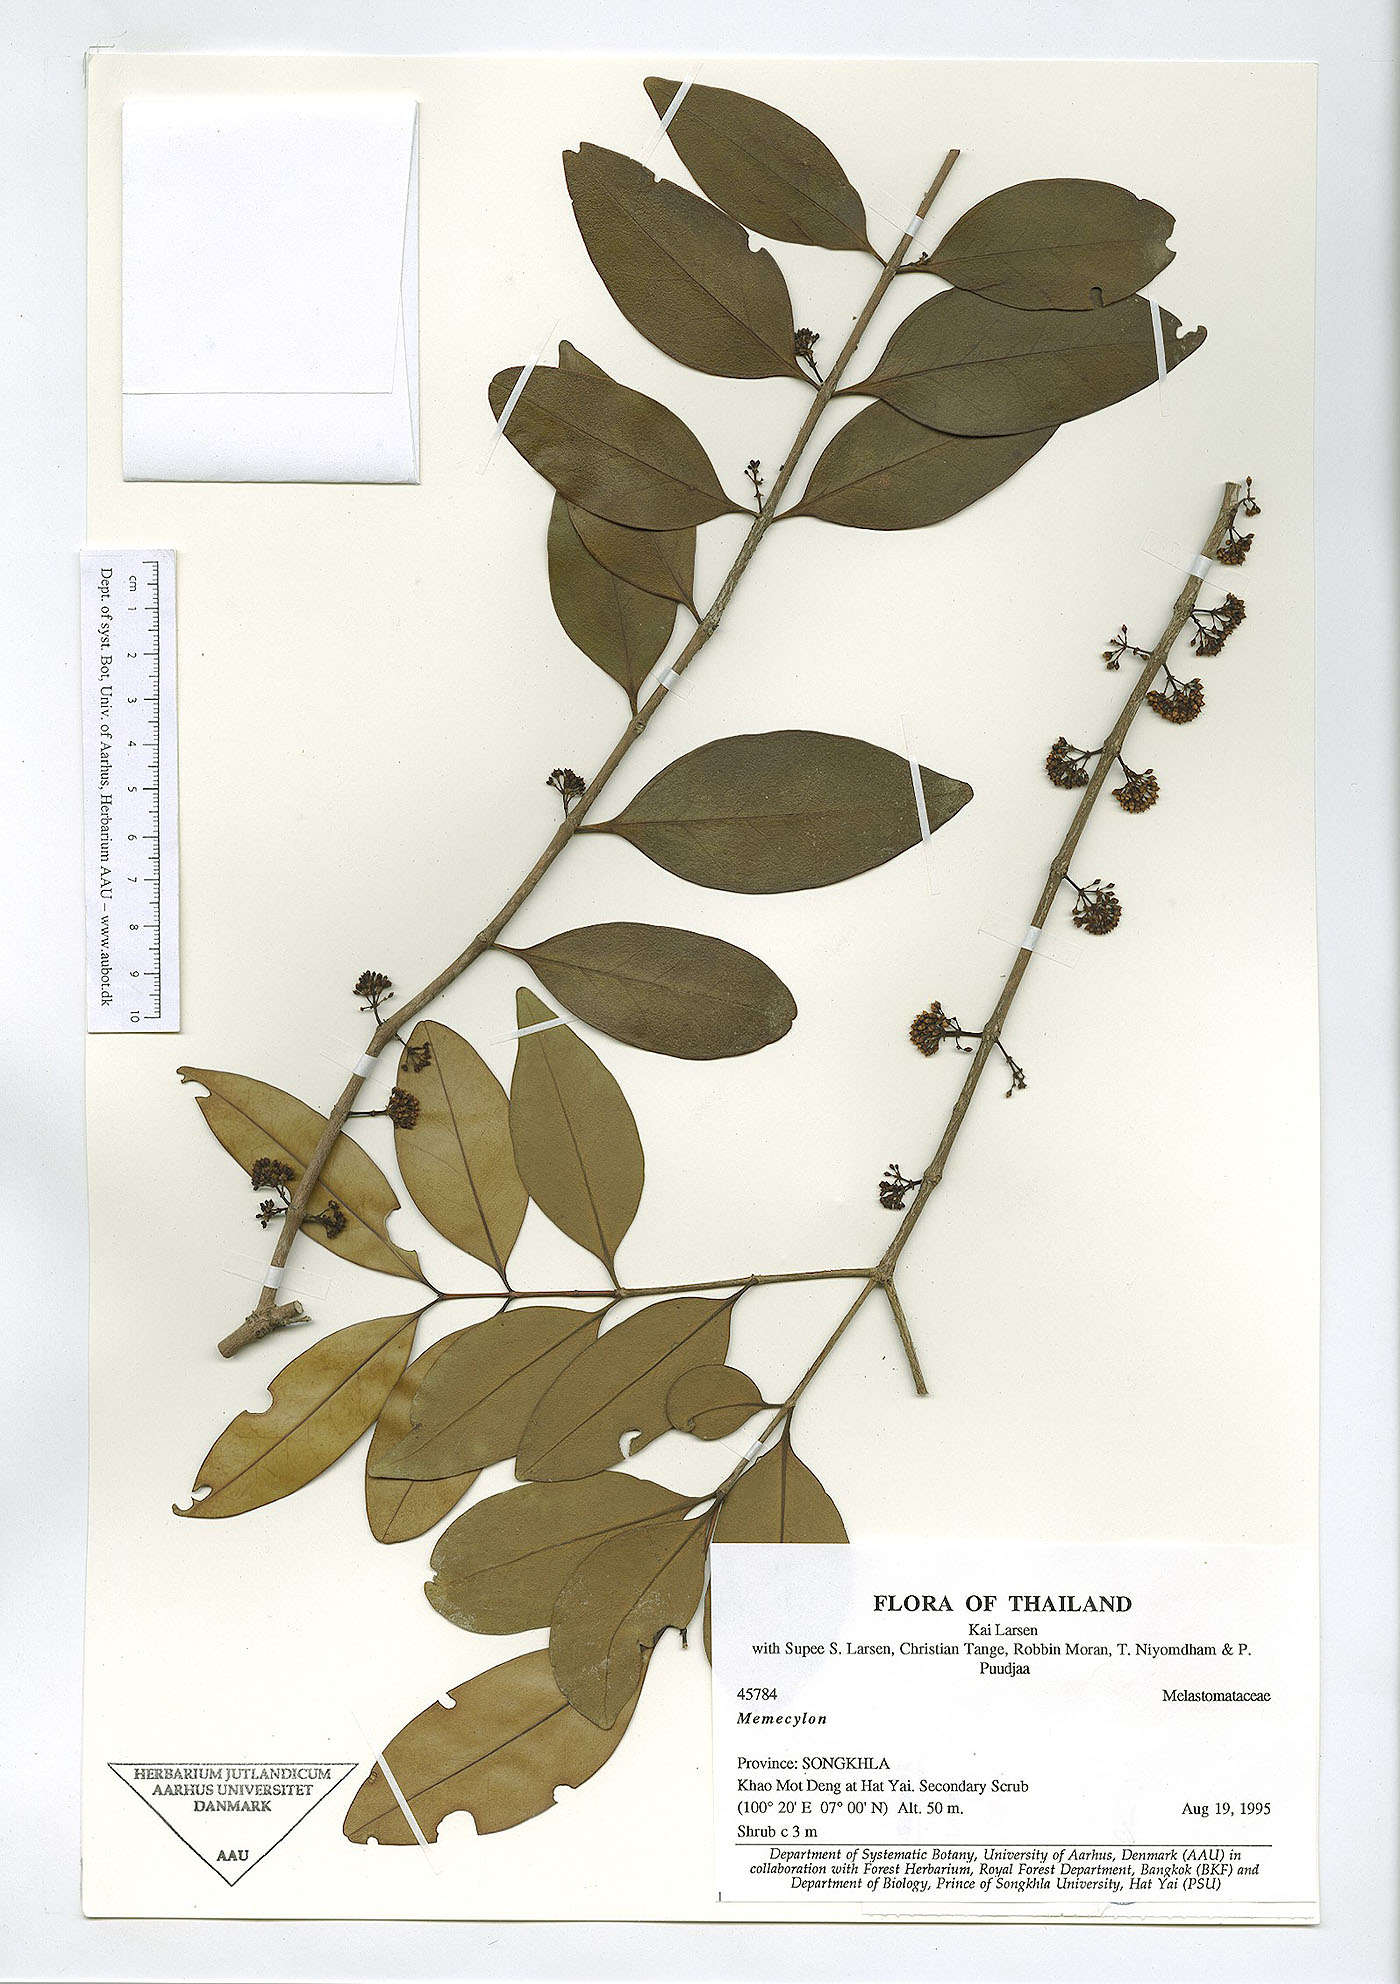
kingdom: Plantae
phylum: Tracheophyta
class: Magnoliopsida
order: Myrtales
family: Melastomataceae
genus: Memecylon
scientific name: Memecylon edule
